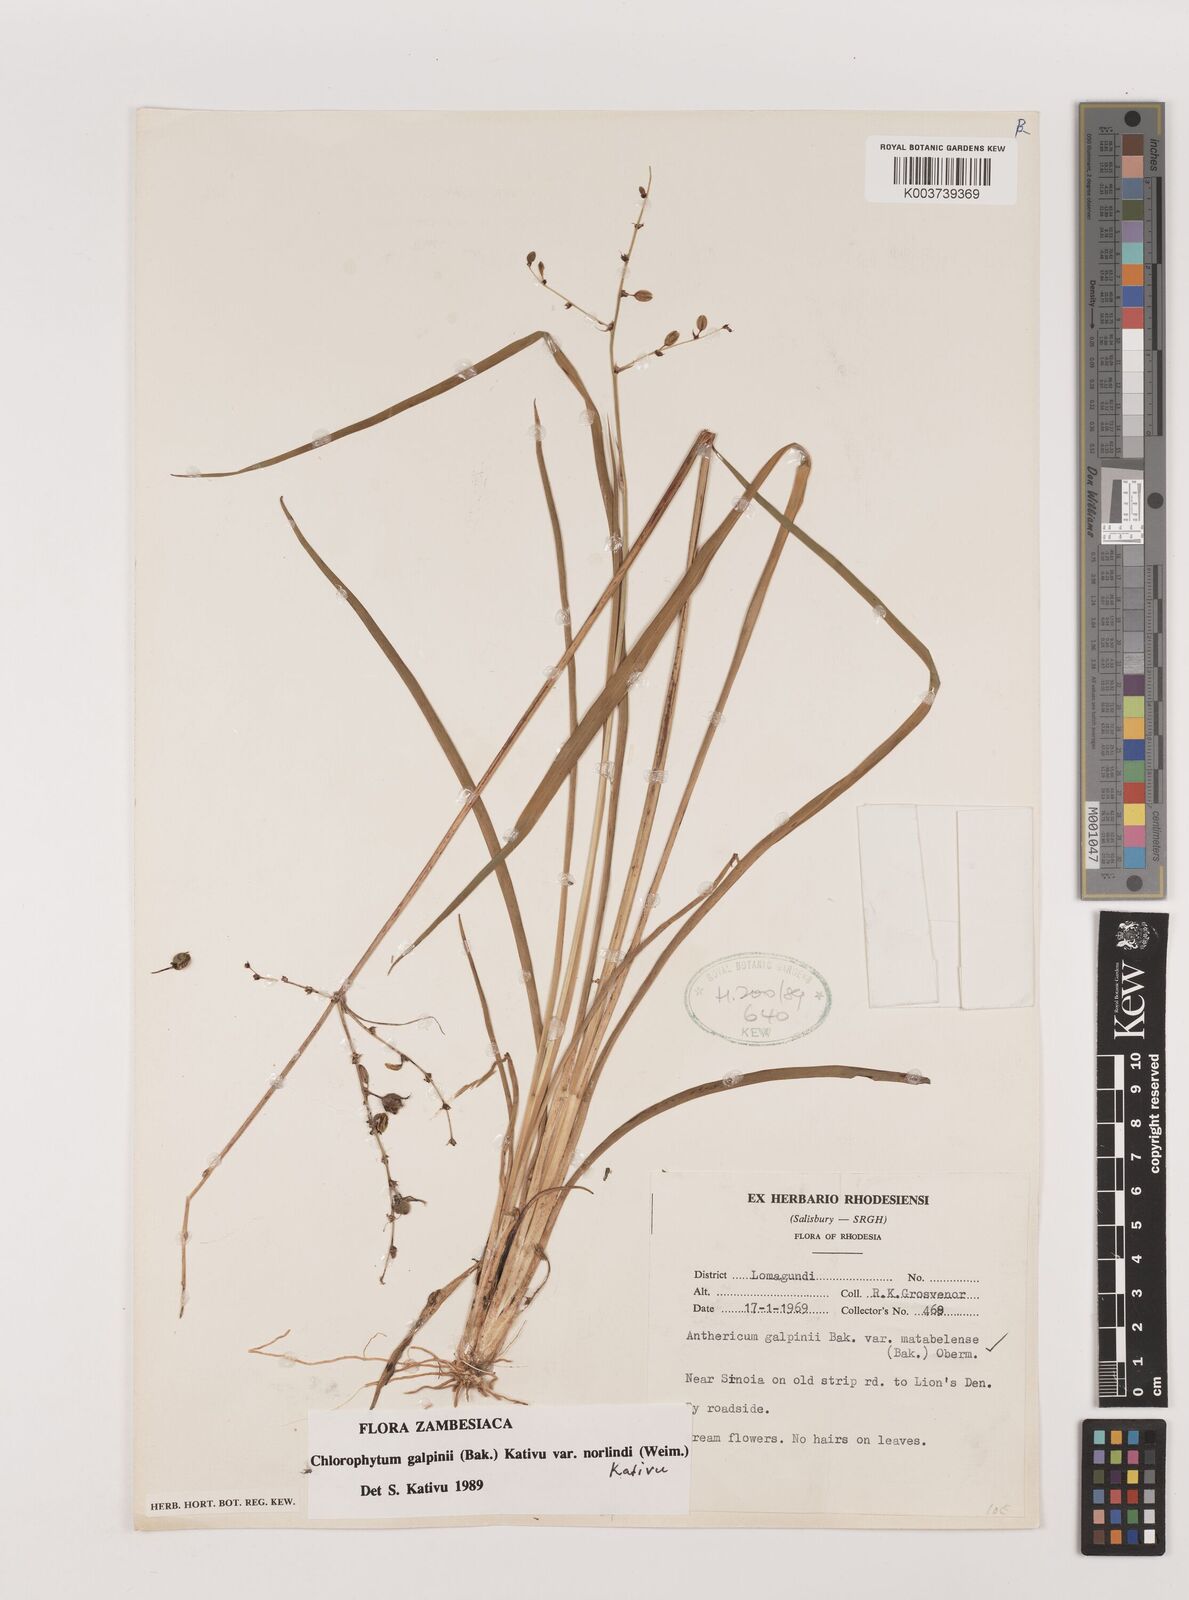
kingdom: Plantae
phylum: Tracheophyta
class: Liliopsida
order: Asparagales
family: Asparagaceae
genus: Chlorophytum
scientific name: Chlorophytum galpinii
